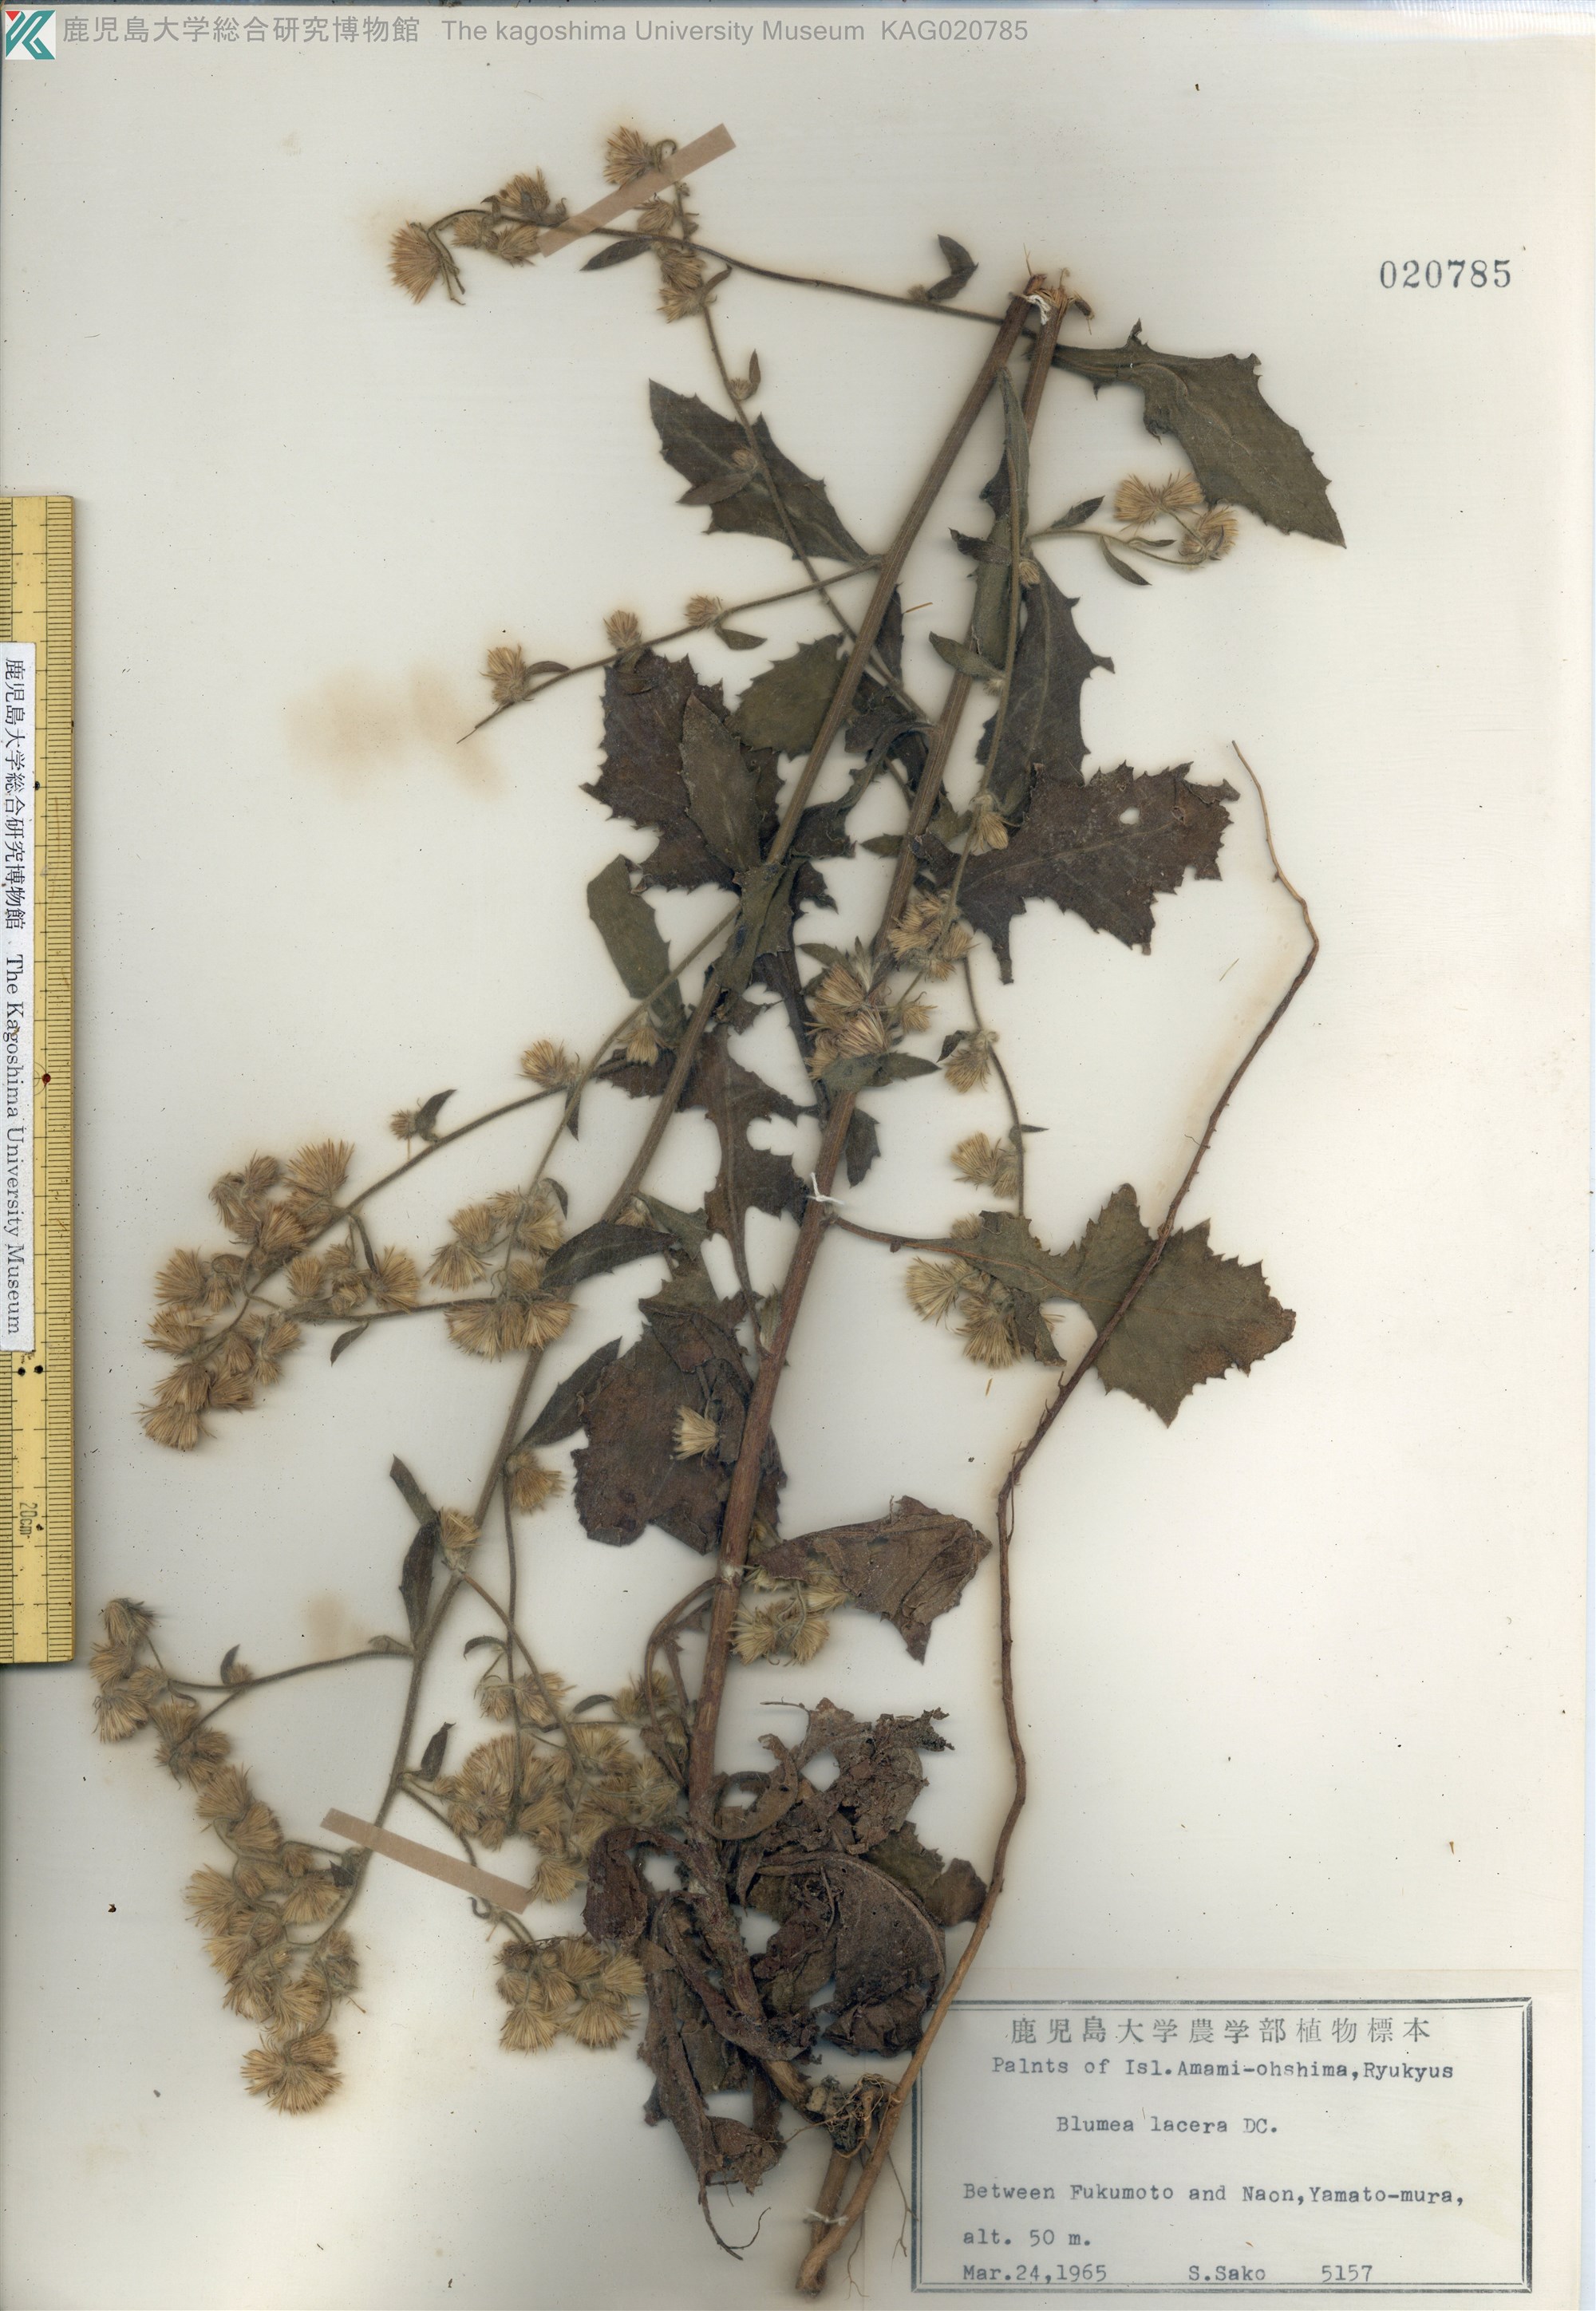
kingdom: Plantae
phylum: Tracheophyta
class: Magnoliopsida
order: Asterales
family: Asteraceae
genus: Blumea
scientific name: Blumea lacera
